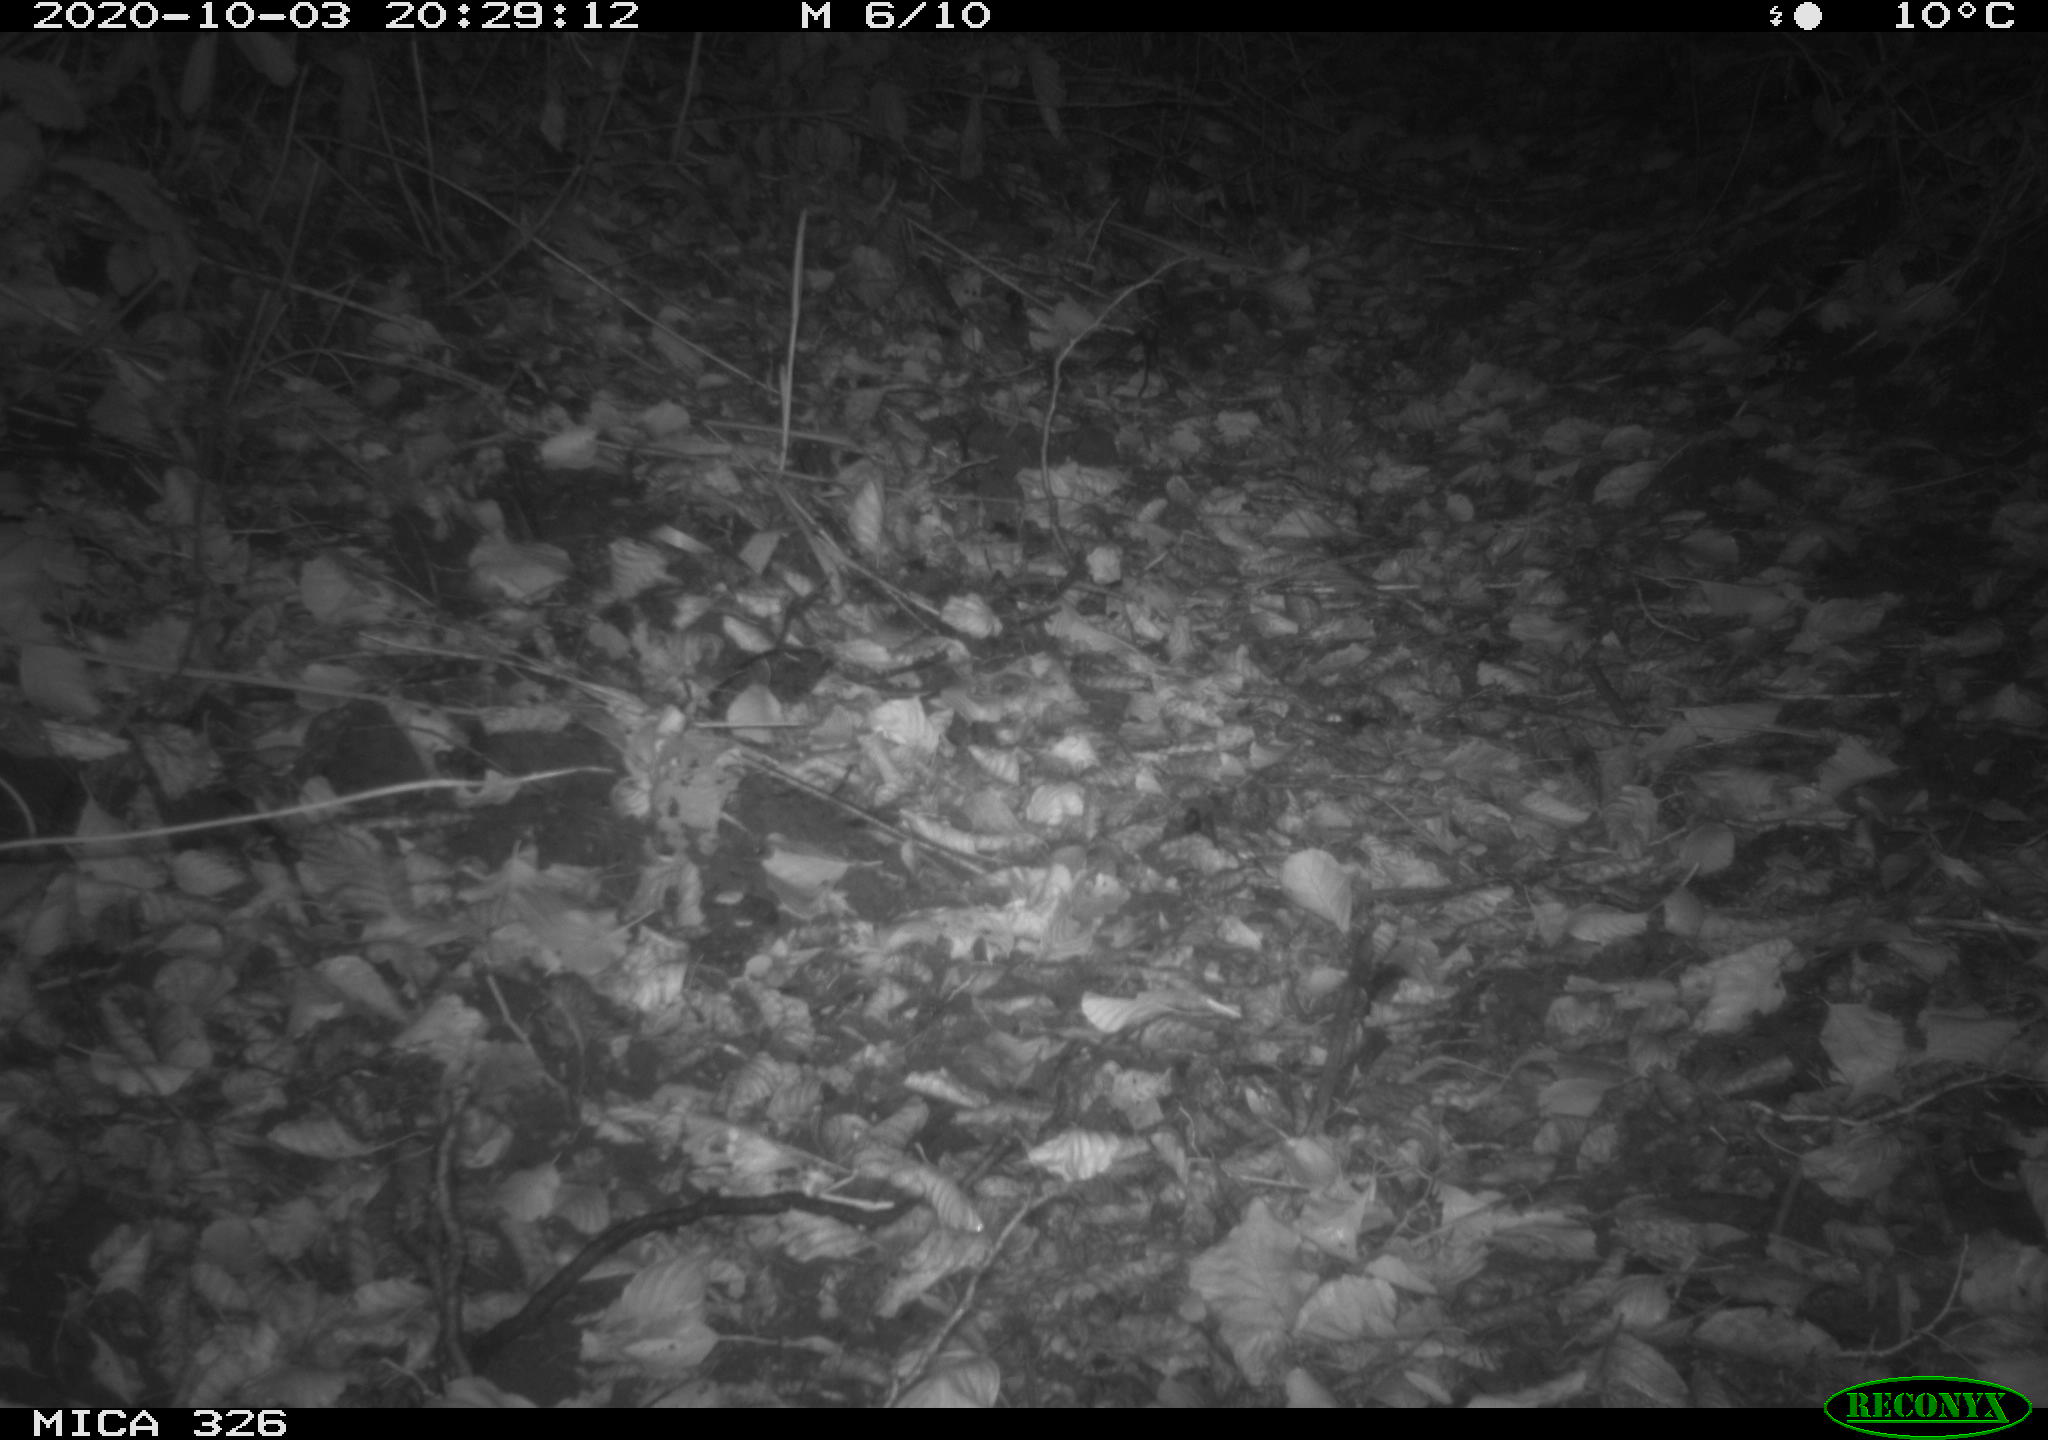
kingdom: Animalia
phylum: Chordata
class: Mammalia
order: Carnivora
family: Mustelidae
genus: Lutra
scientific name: Lutra lutra
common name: European otter
